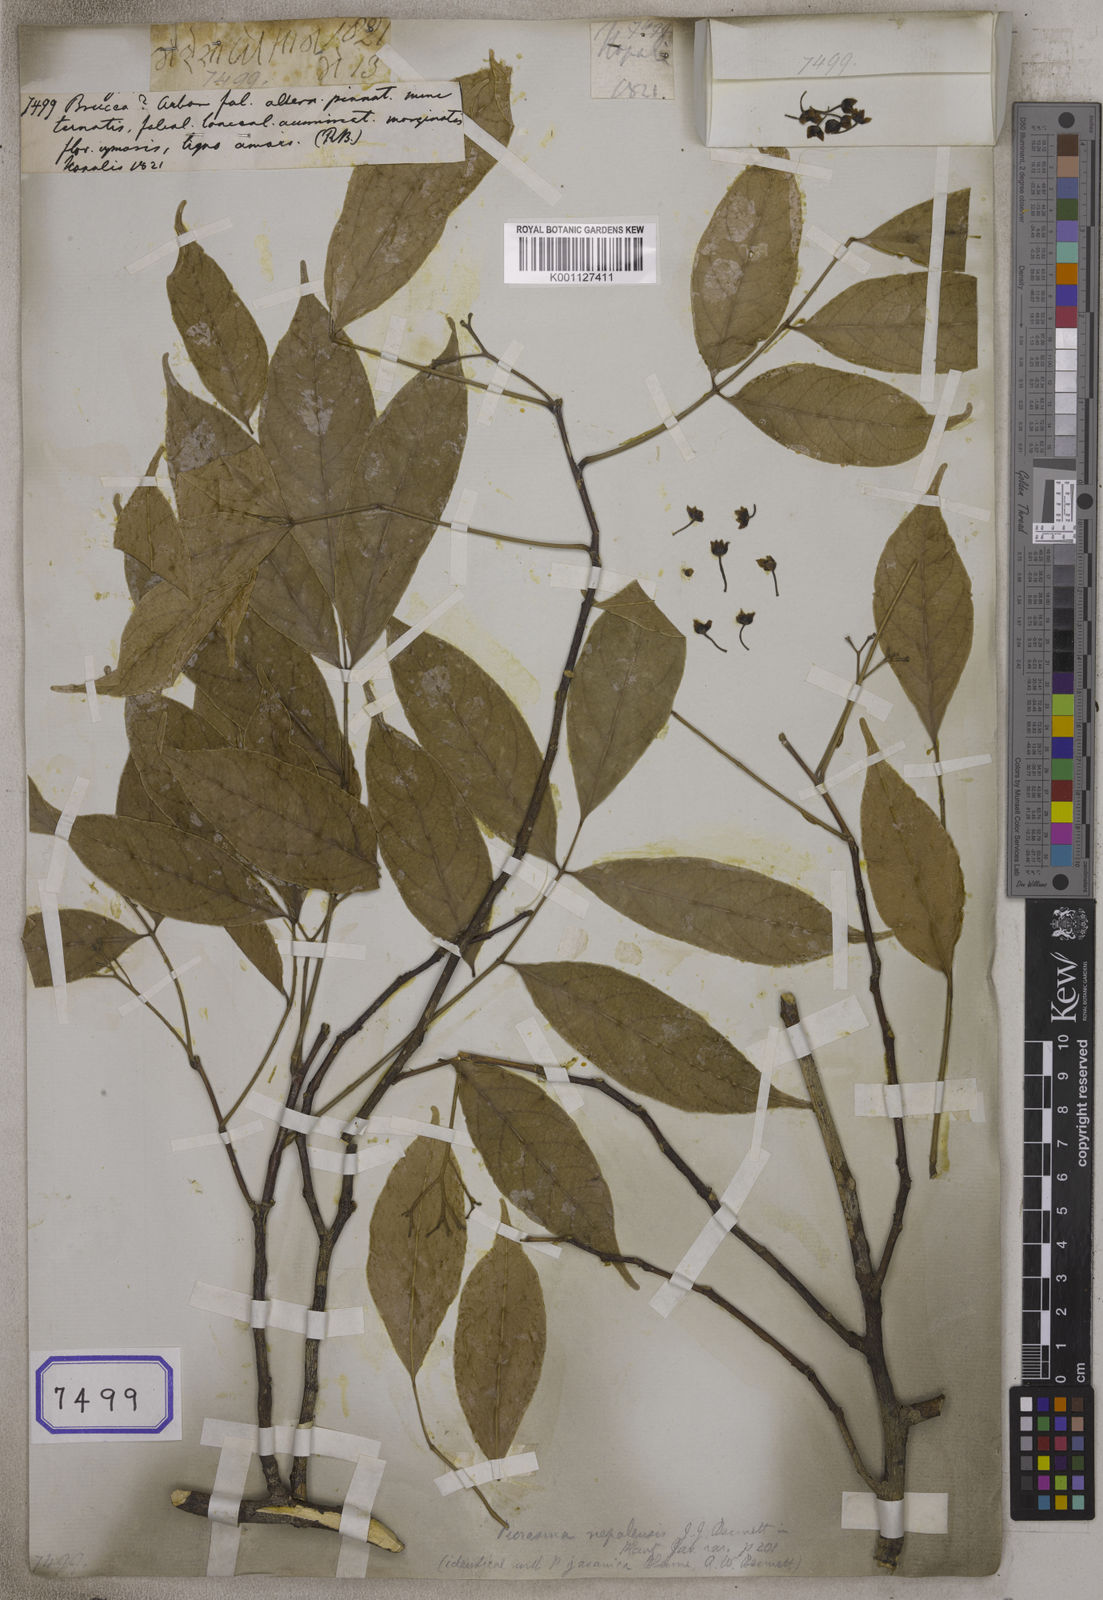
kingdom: Plantae
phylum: Tracheophyta
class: Magnoliopsida
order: Sapindales
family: Simaroubaceae
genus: Brucea
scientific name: Brucea
